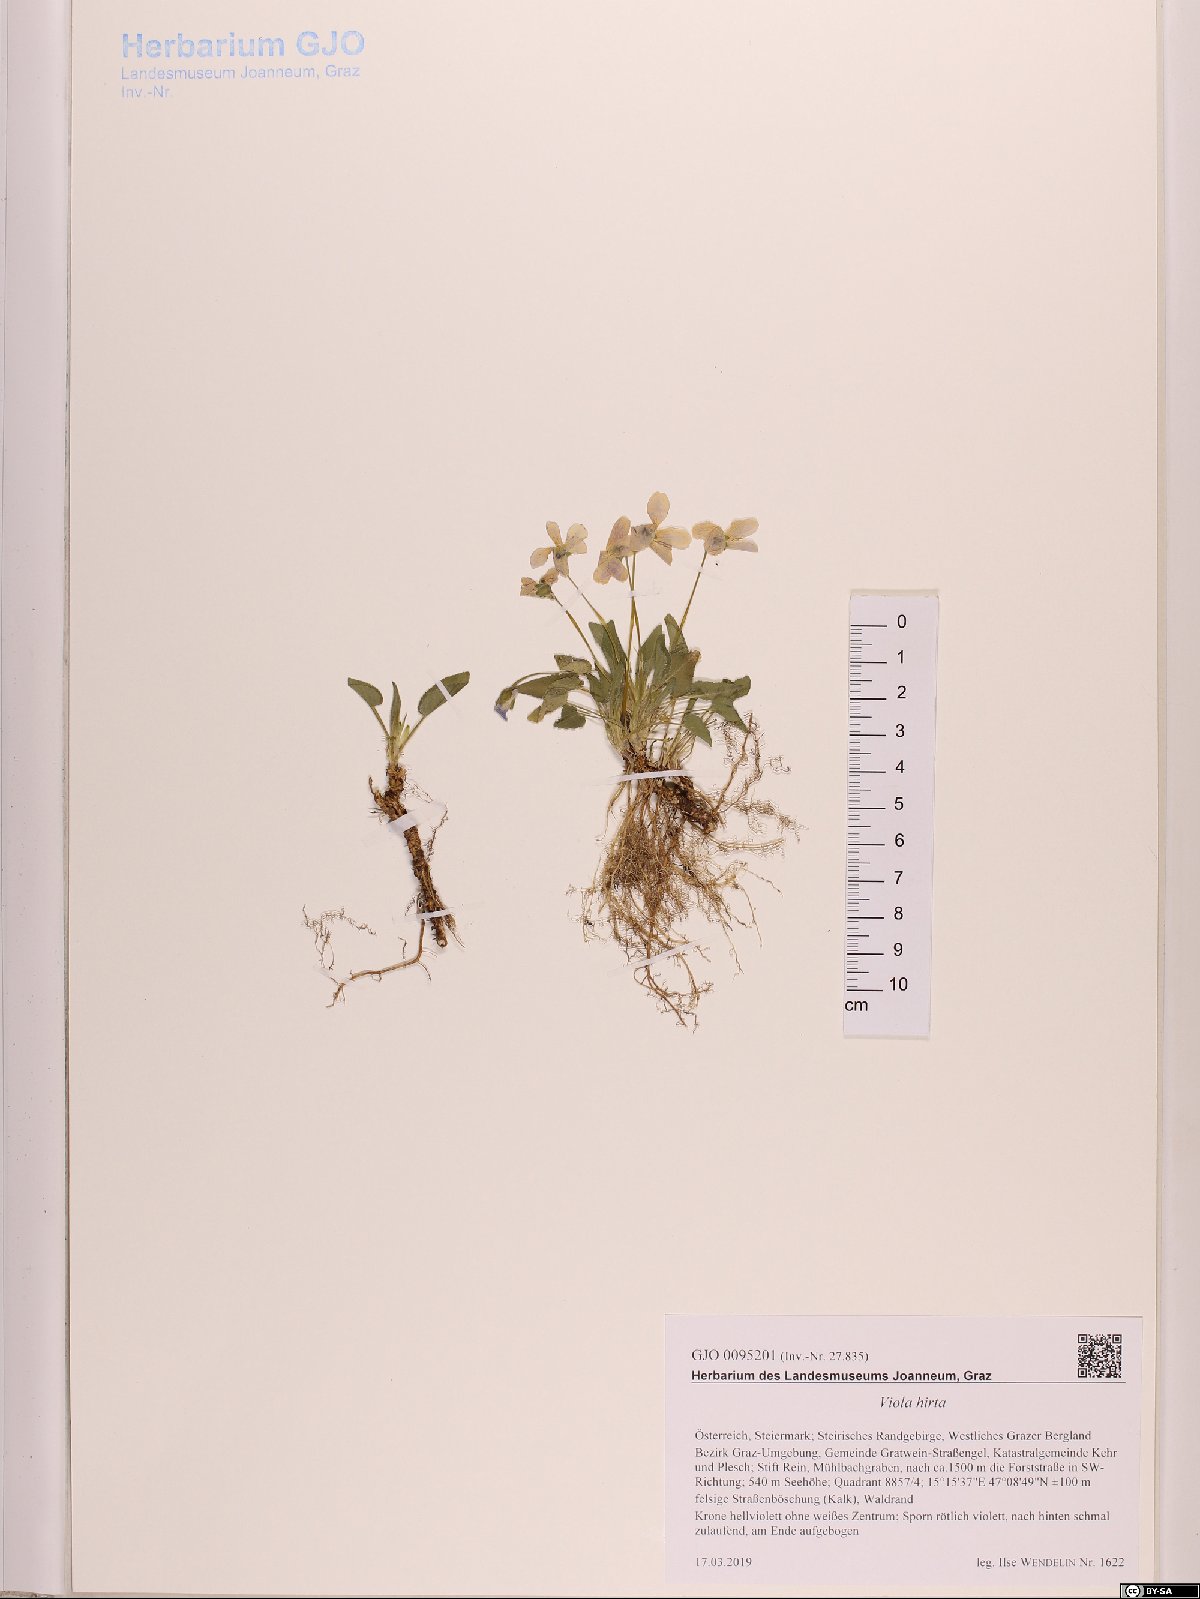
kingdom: Plantae
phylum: Tracheophyta
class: Magnoliopsida
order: Malpighiales
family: Violaceae
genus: Viola
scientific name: Viola hirta
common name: Hairy violet
